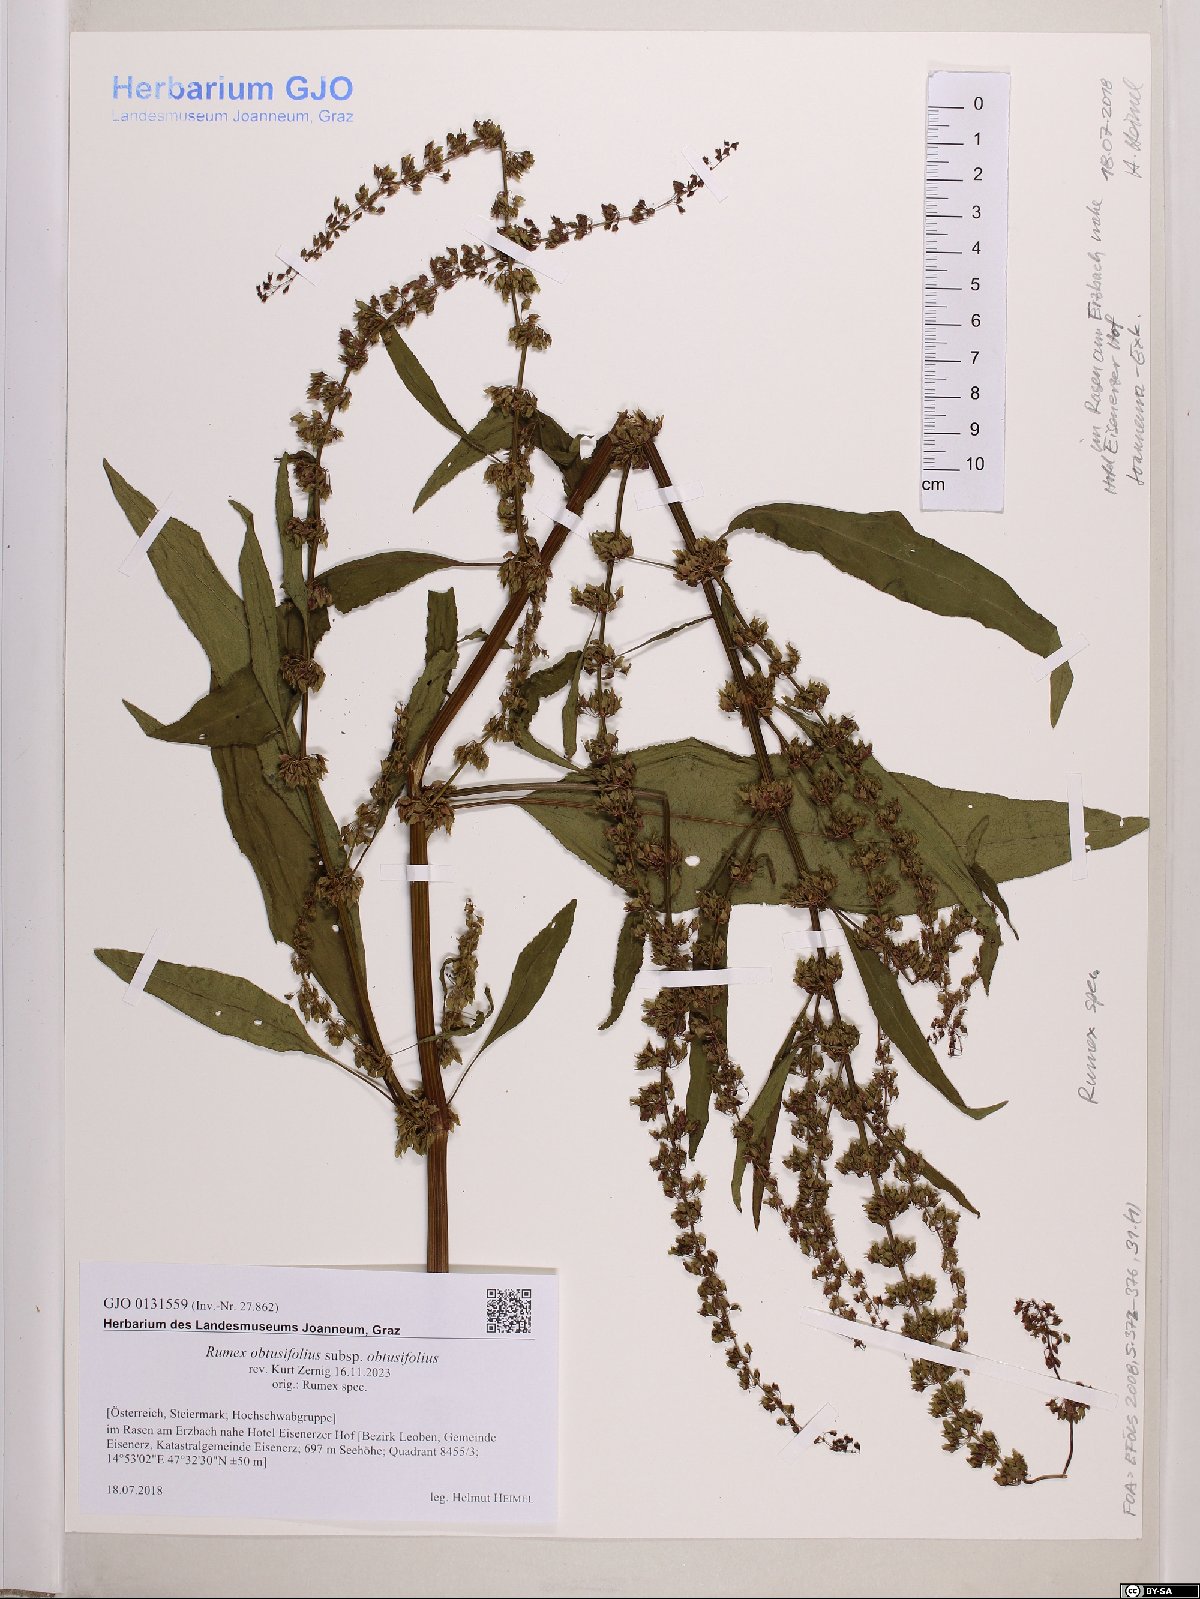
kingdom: Plantae
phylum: Tracheophyta
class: Magnoliopsida
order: Caryophyllales
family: Polygonaceae
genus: Rumex
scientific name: Rumex obtusifolius
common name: Bitter dock
